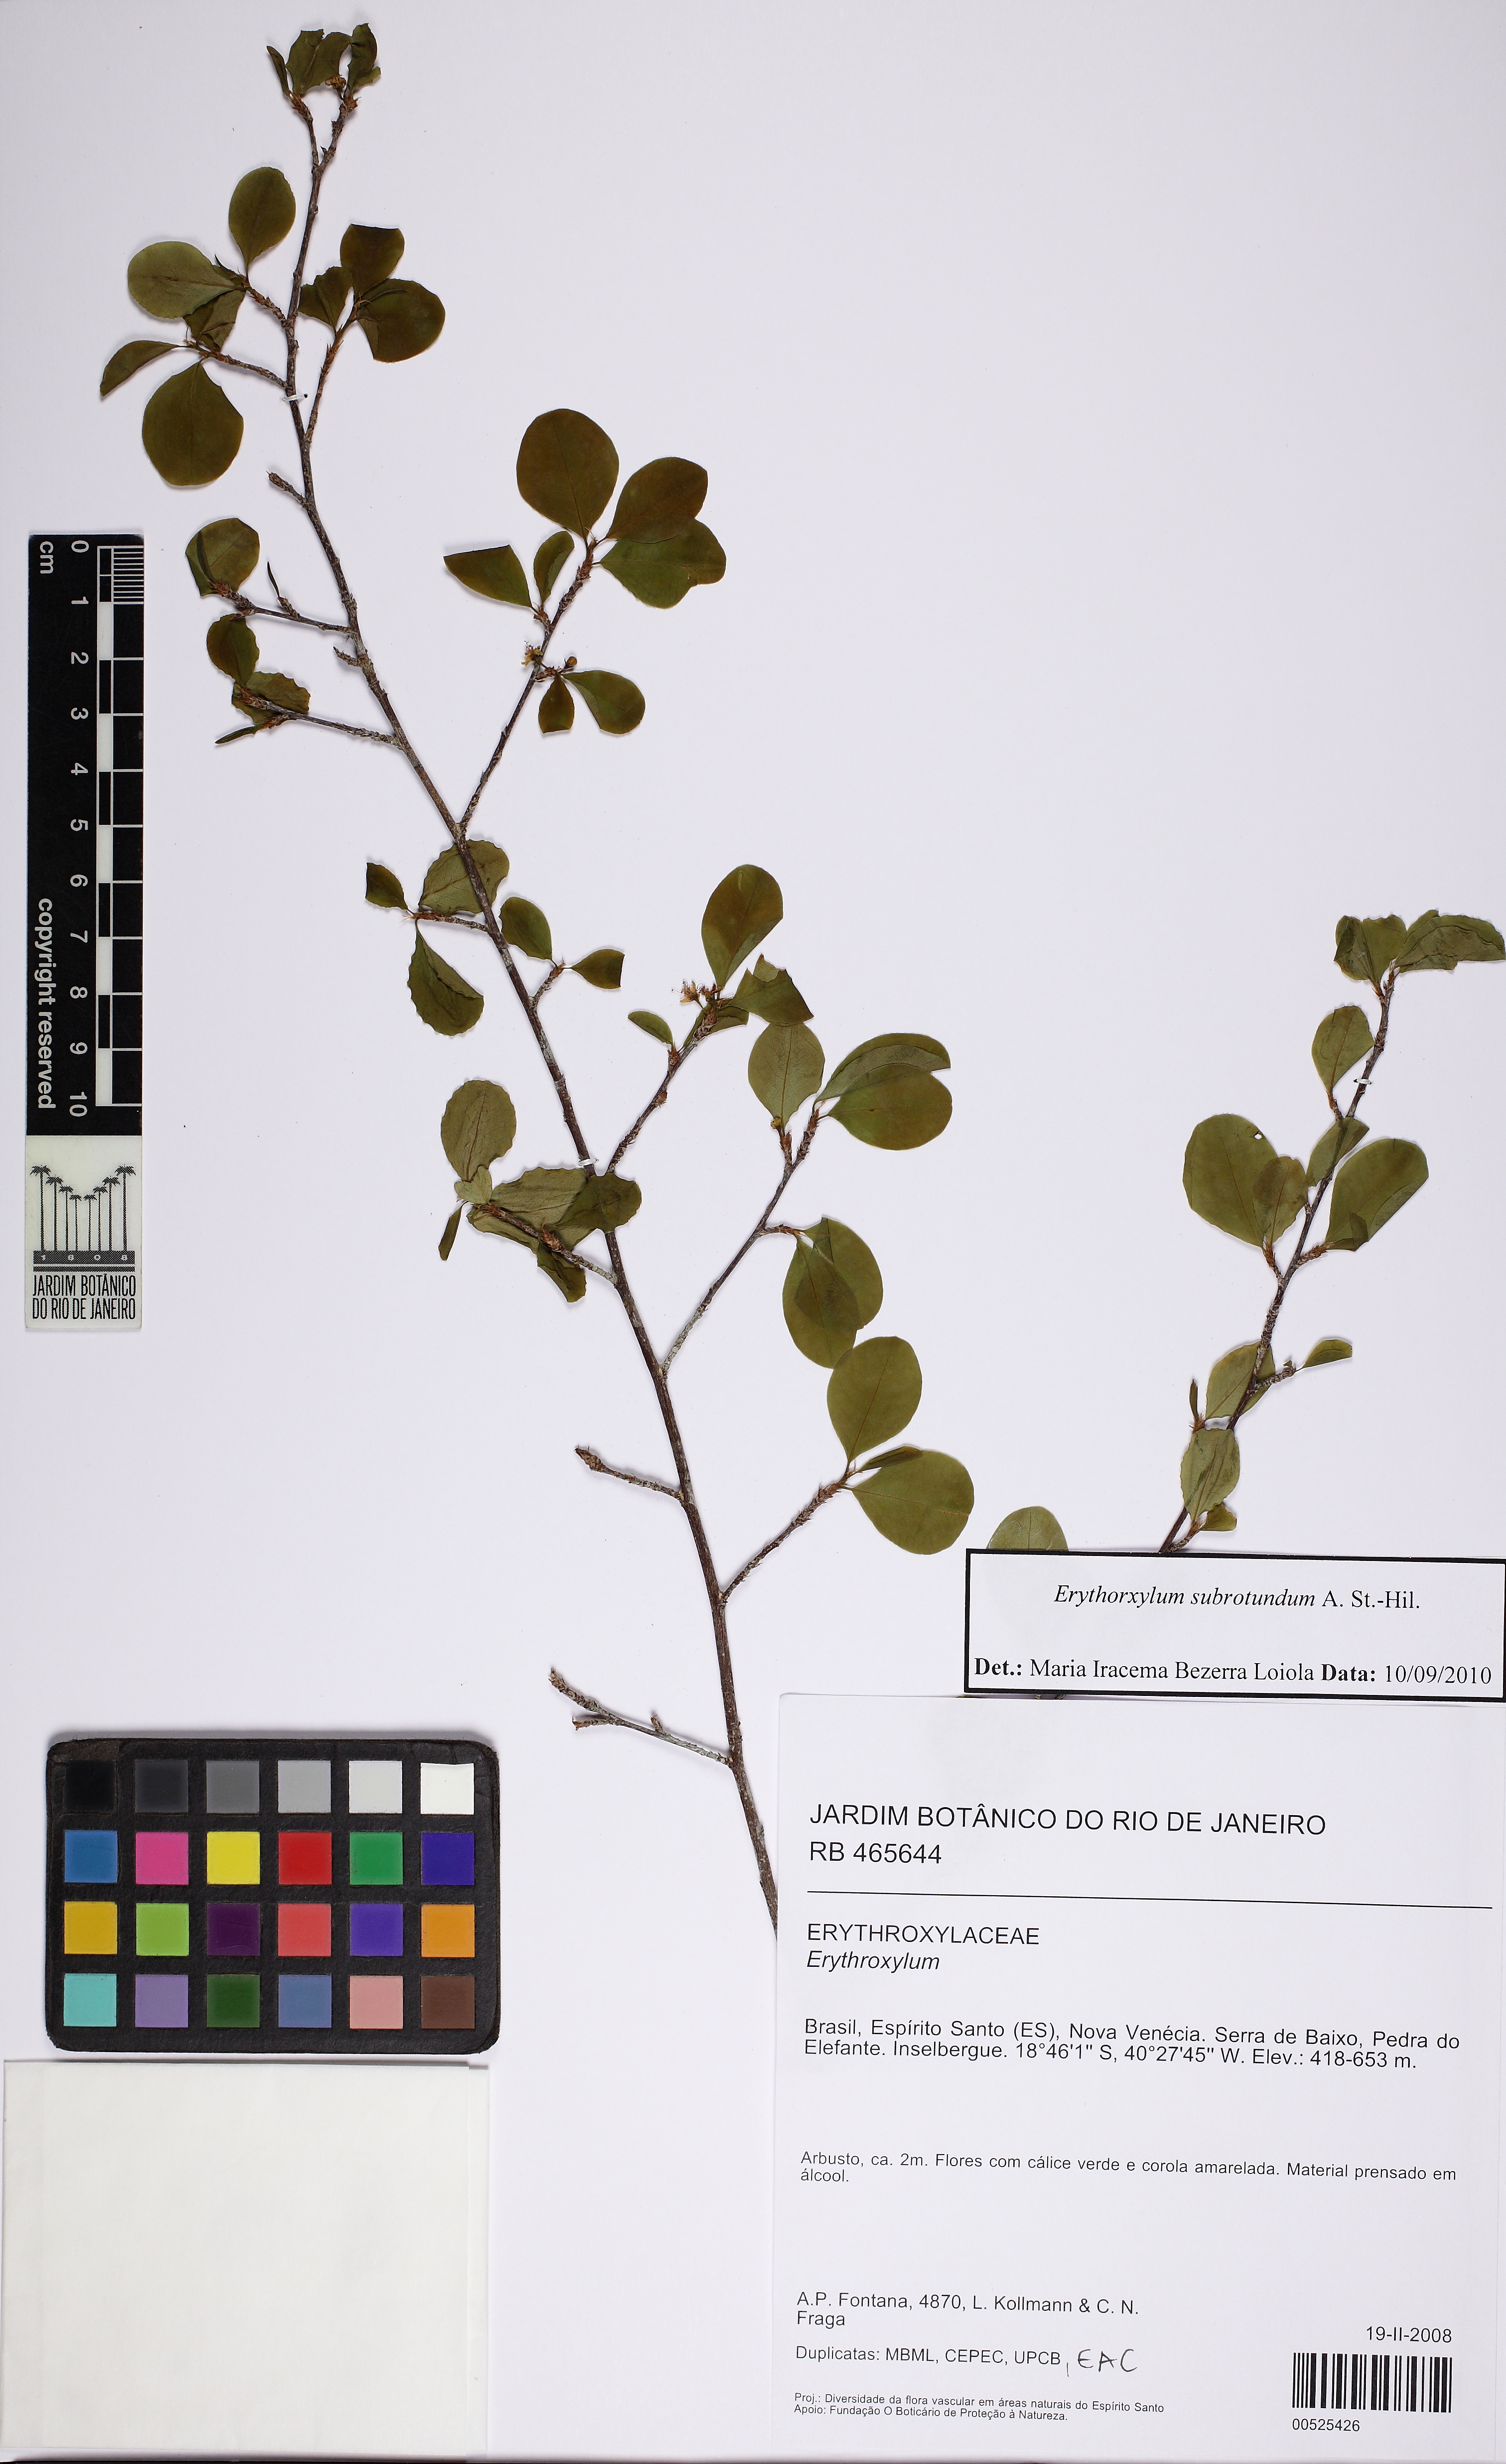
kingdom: Plantae
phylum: Tracheophyta
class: Magnoliopsida
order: Malpighiales
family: Erythroxylaceae
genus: Erythroxylum
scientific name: Erythroxylum subrotundum
